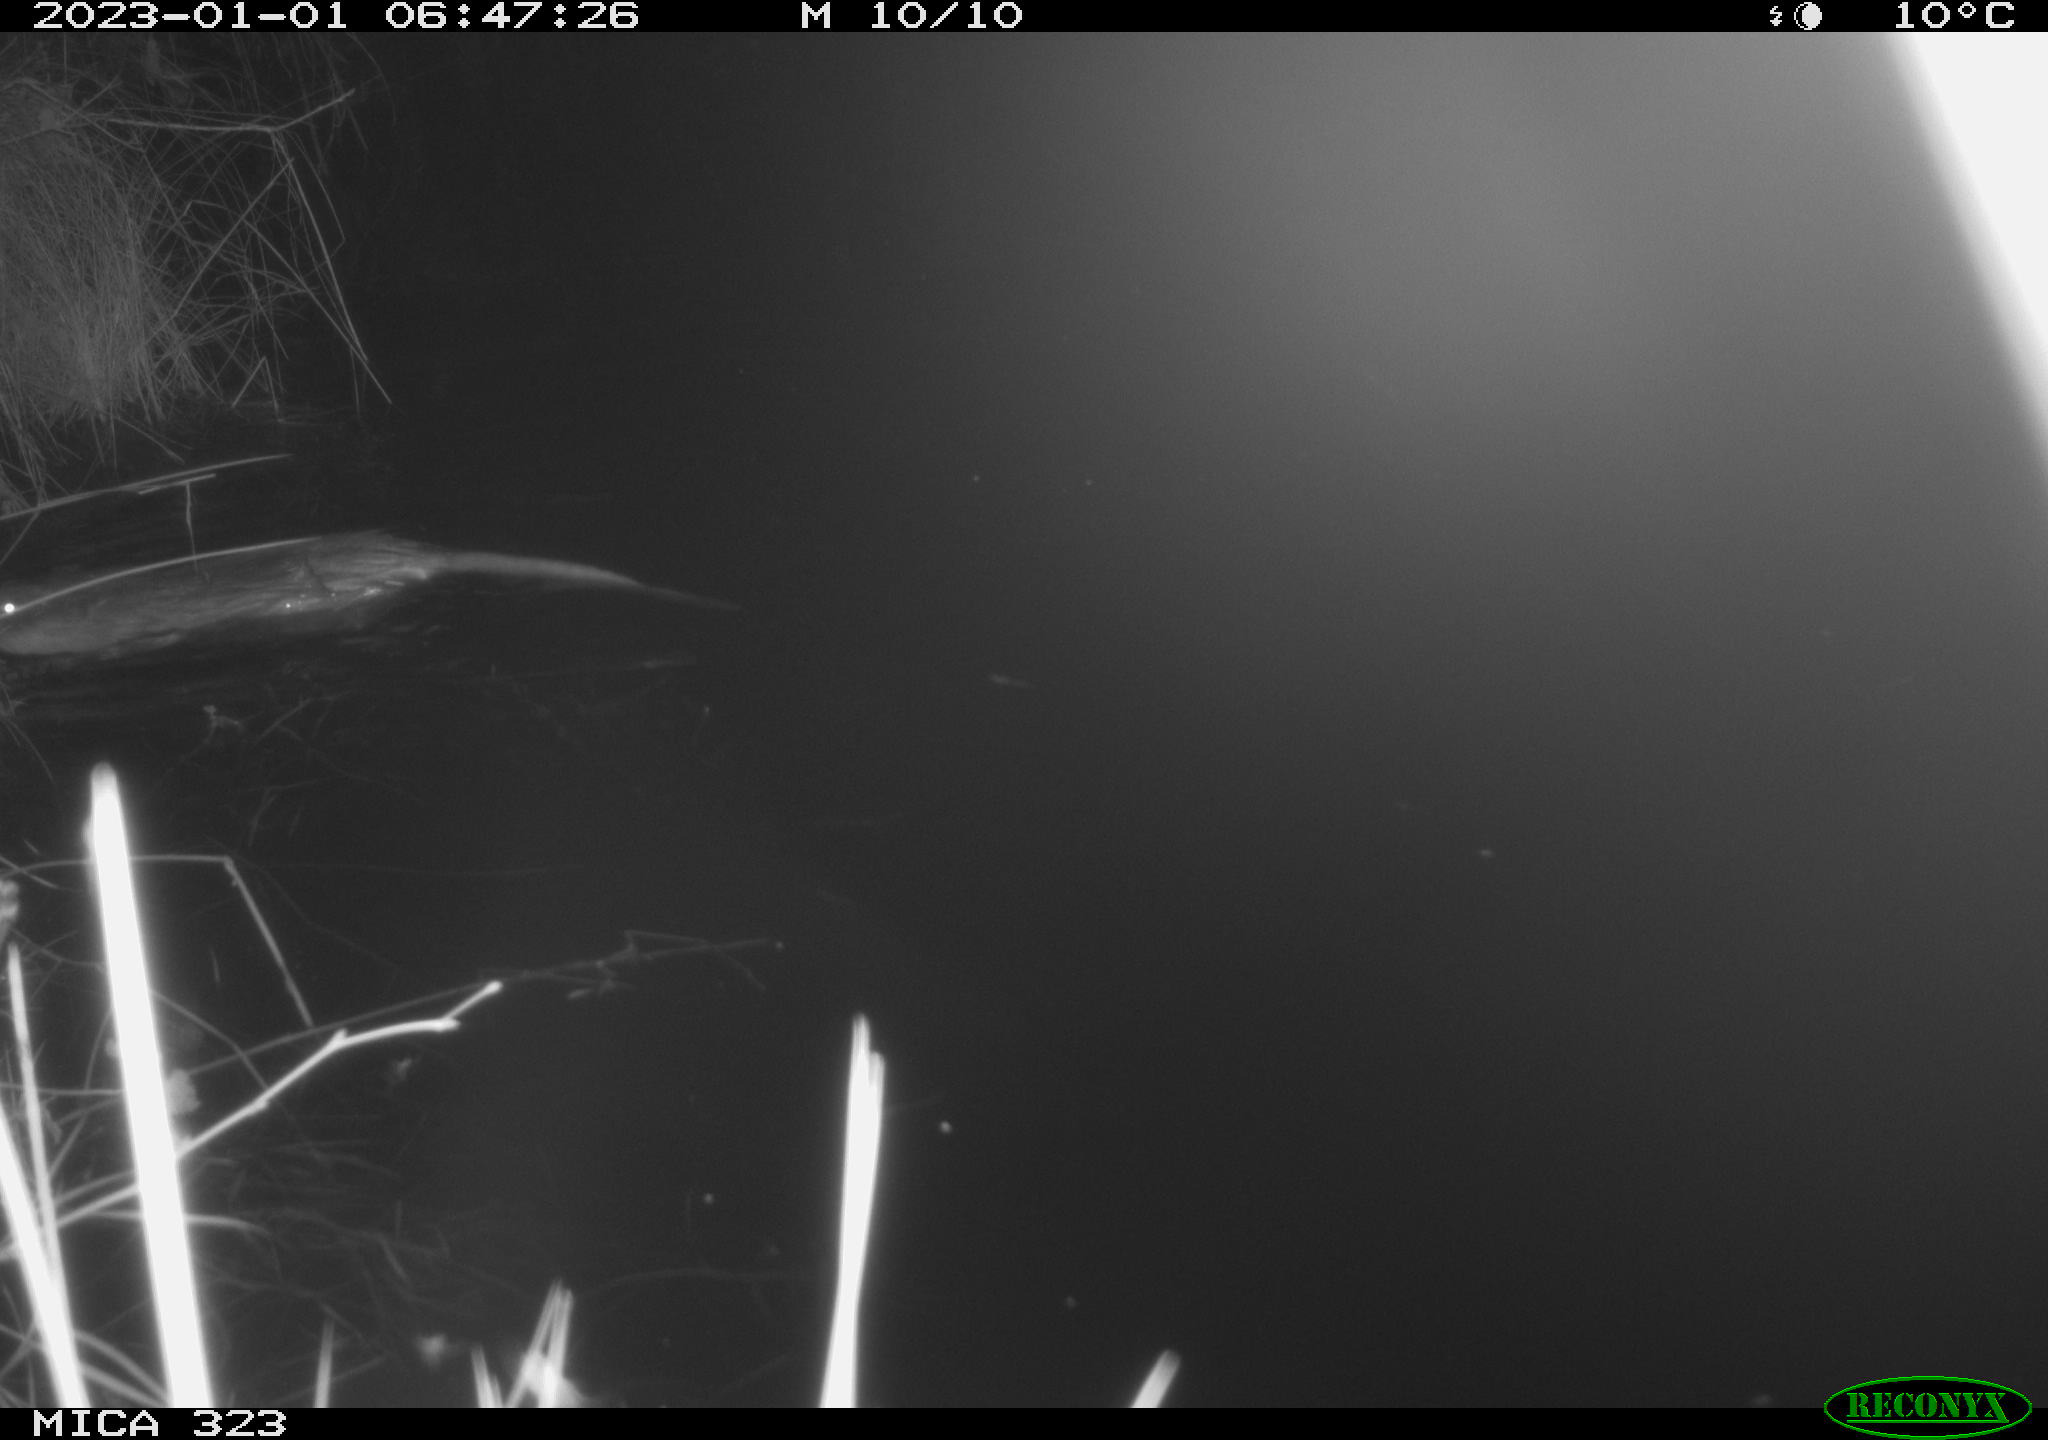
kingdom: Animalia
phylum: Chordata
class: Mammalia
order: Rodentia
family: Cricetidae
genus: Ondatra
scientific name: Ondatra zibethicus
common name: Muskrat
